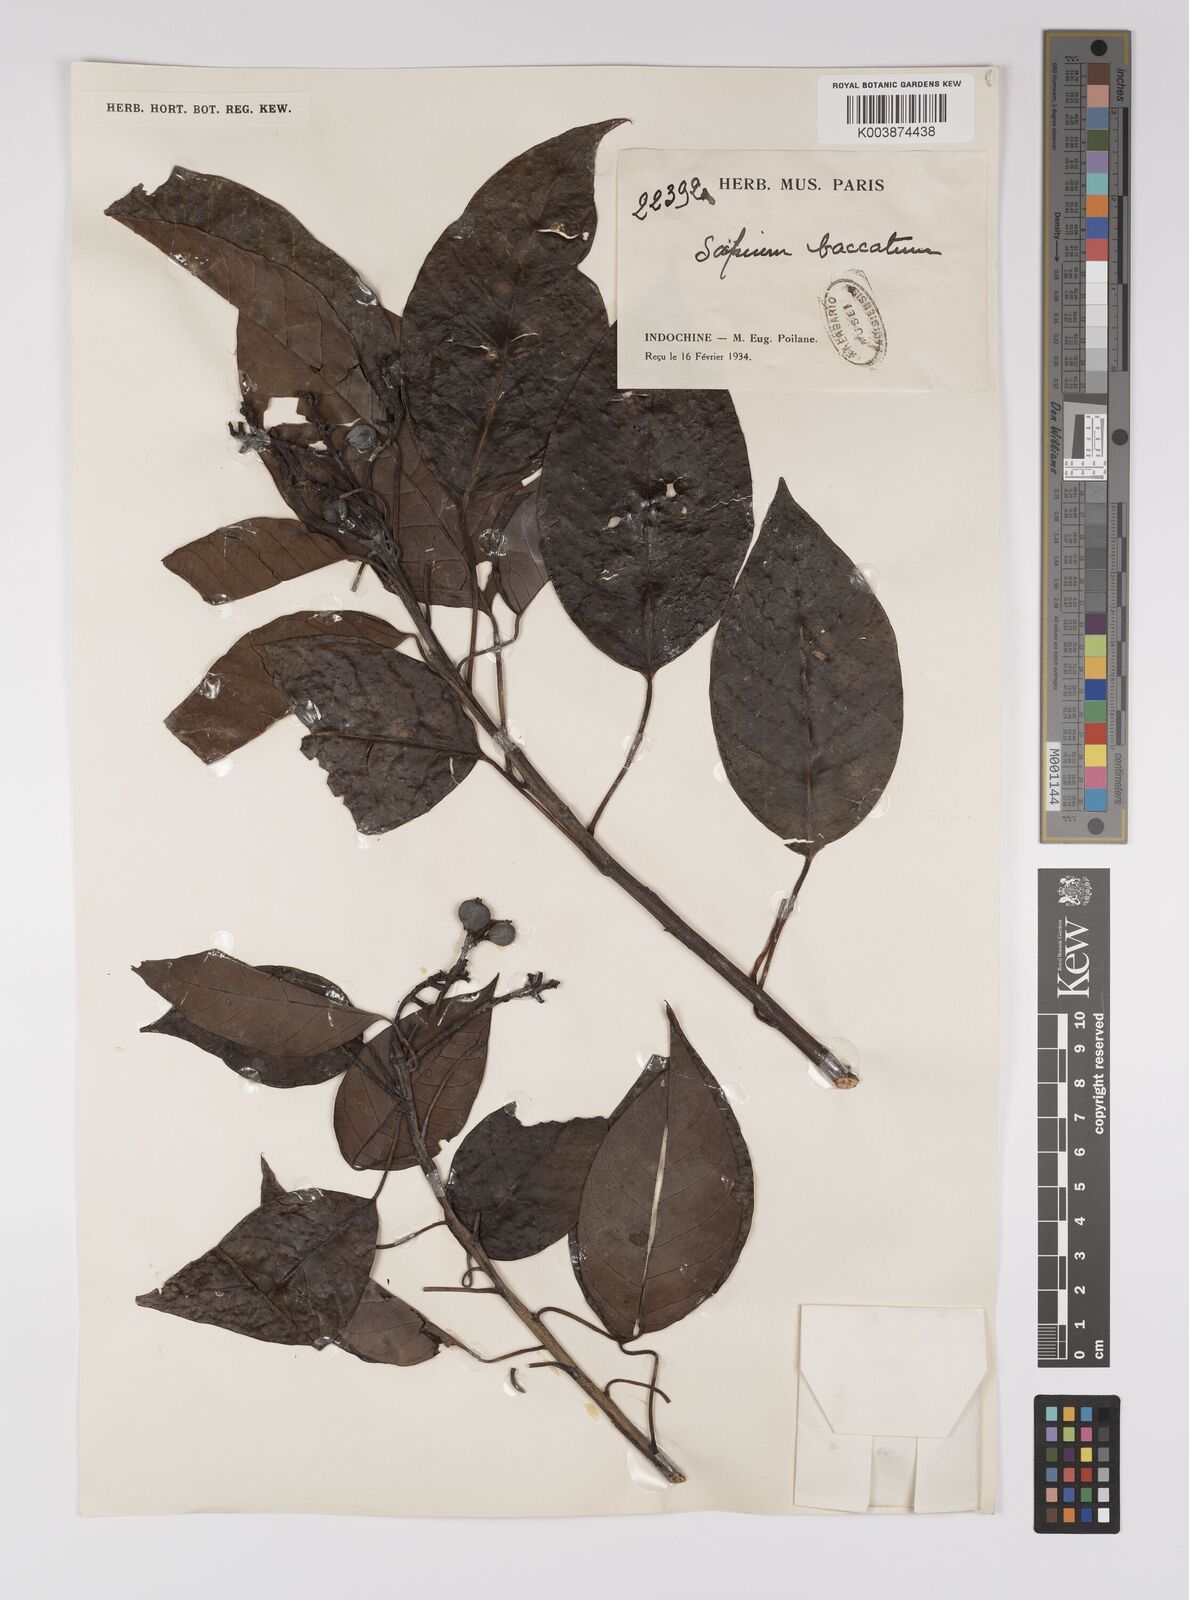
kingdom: Plantae
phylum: Tracheophyta
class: Magnoliopsida
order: Malpighiales
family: Euphorbiaceae
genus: Balakata
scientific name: Balakata baccata
